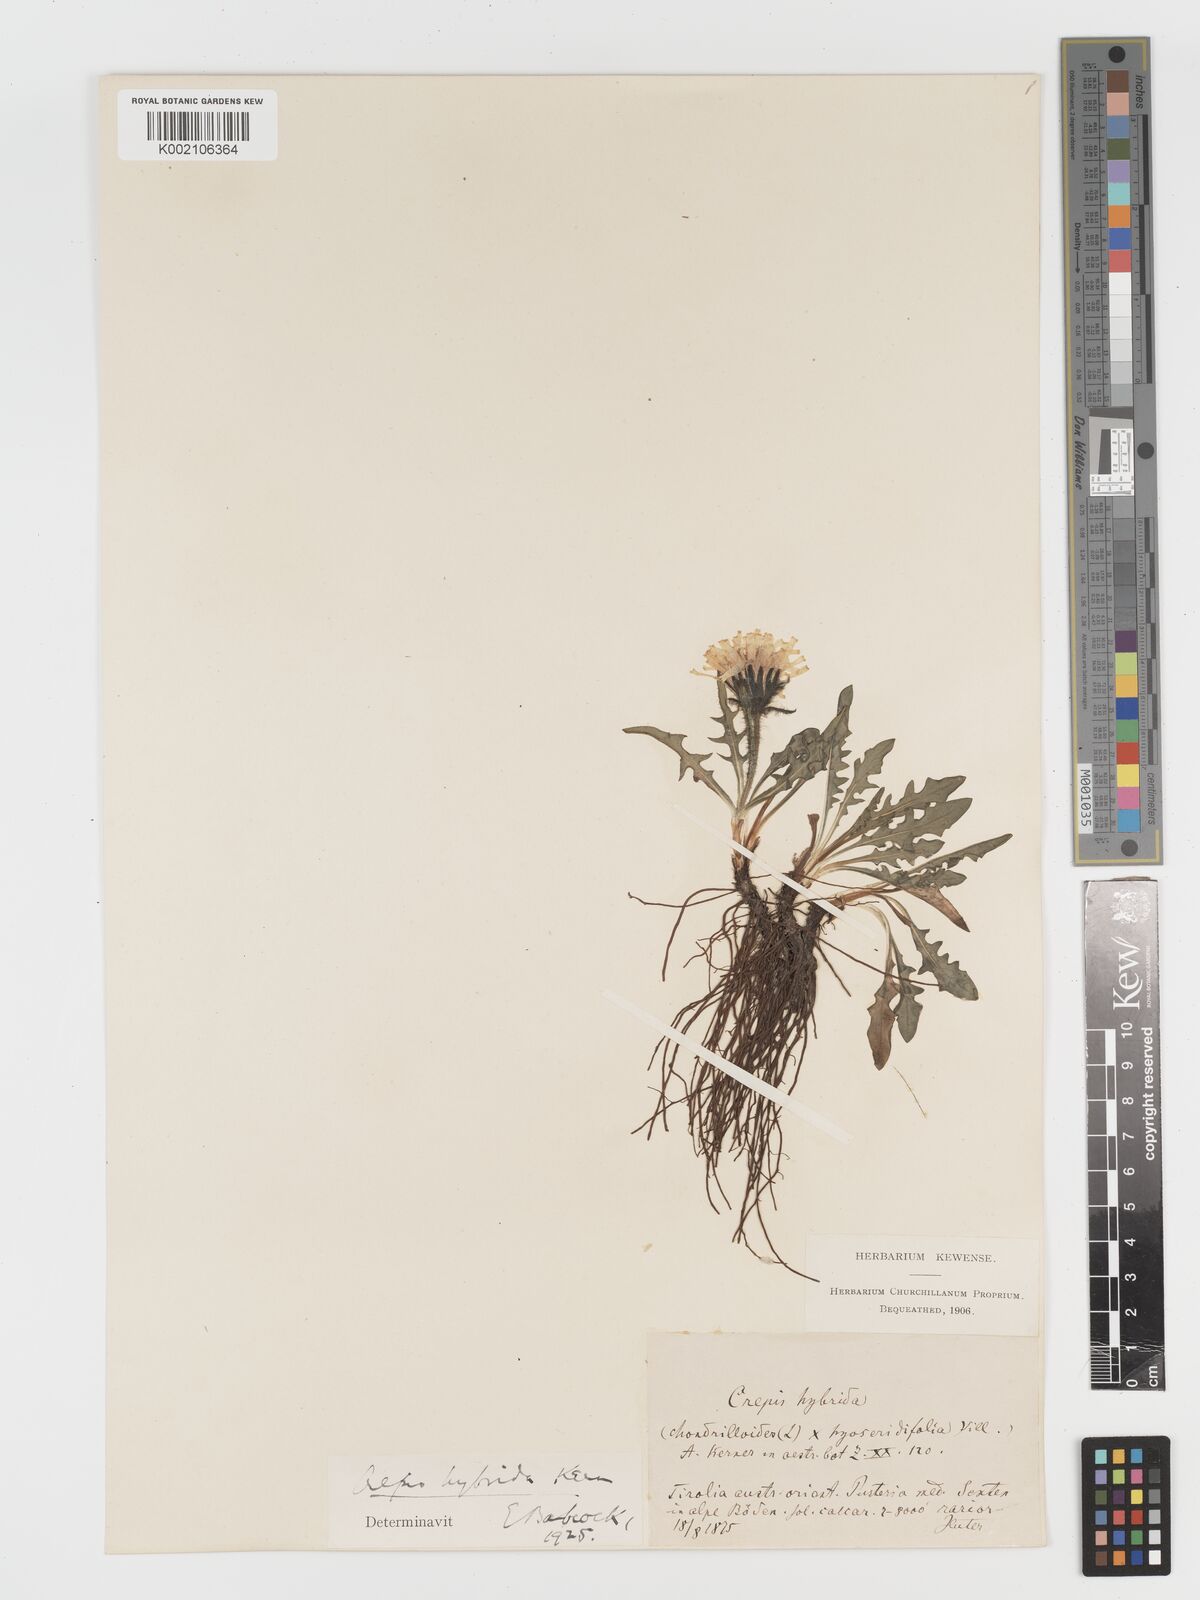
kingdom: Plantae
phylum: Tracheophyta
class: Magnoliopsida
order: Asterales
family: Asteraceae
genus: Crepis
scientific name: Crepis hybrida
